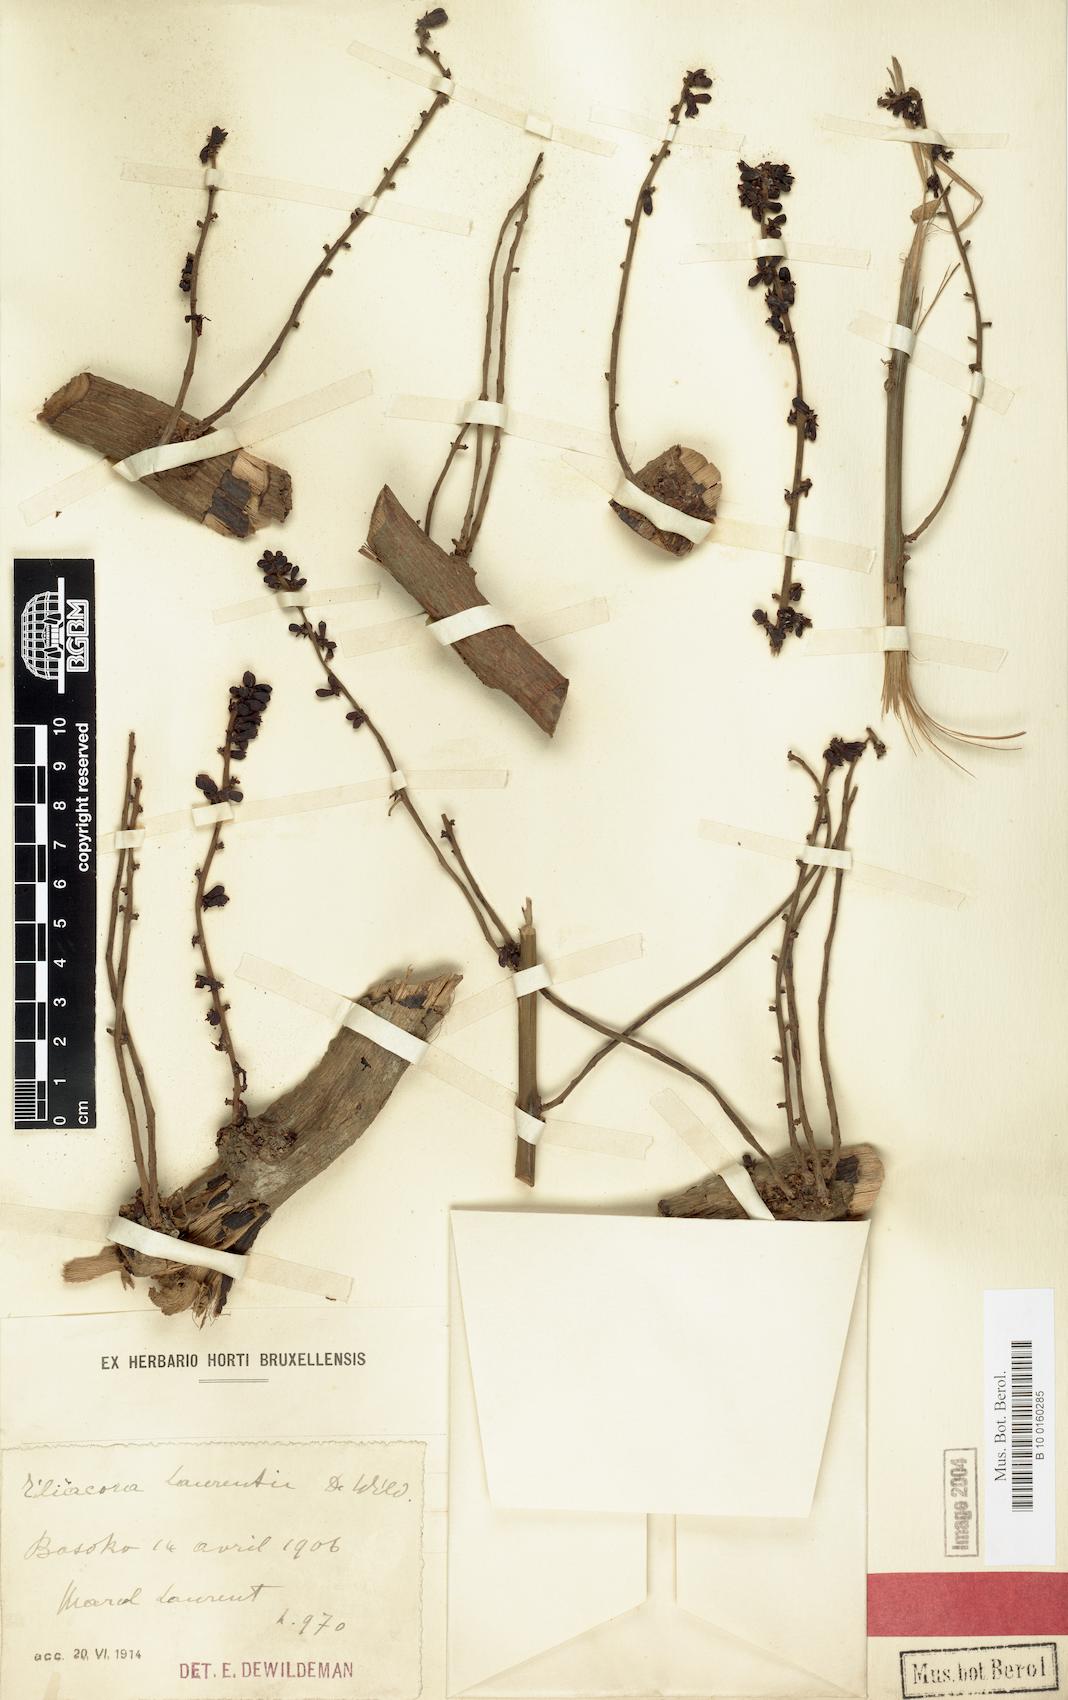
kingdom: Plantae
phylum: Tracheophyta
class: Magnoliopsida
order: Ranunculales
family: Menispermaceae
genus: Tiliacora
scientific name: Tiliacora laurentii
